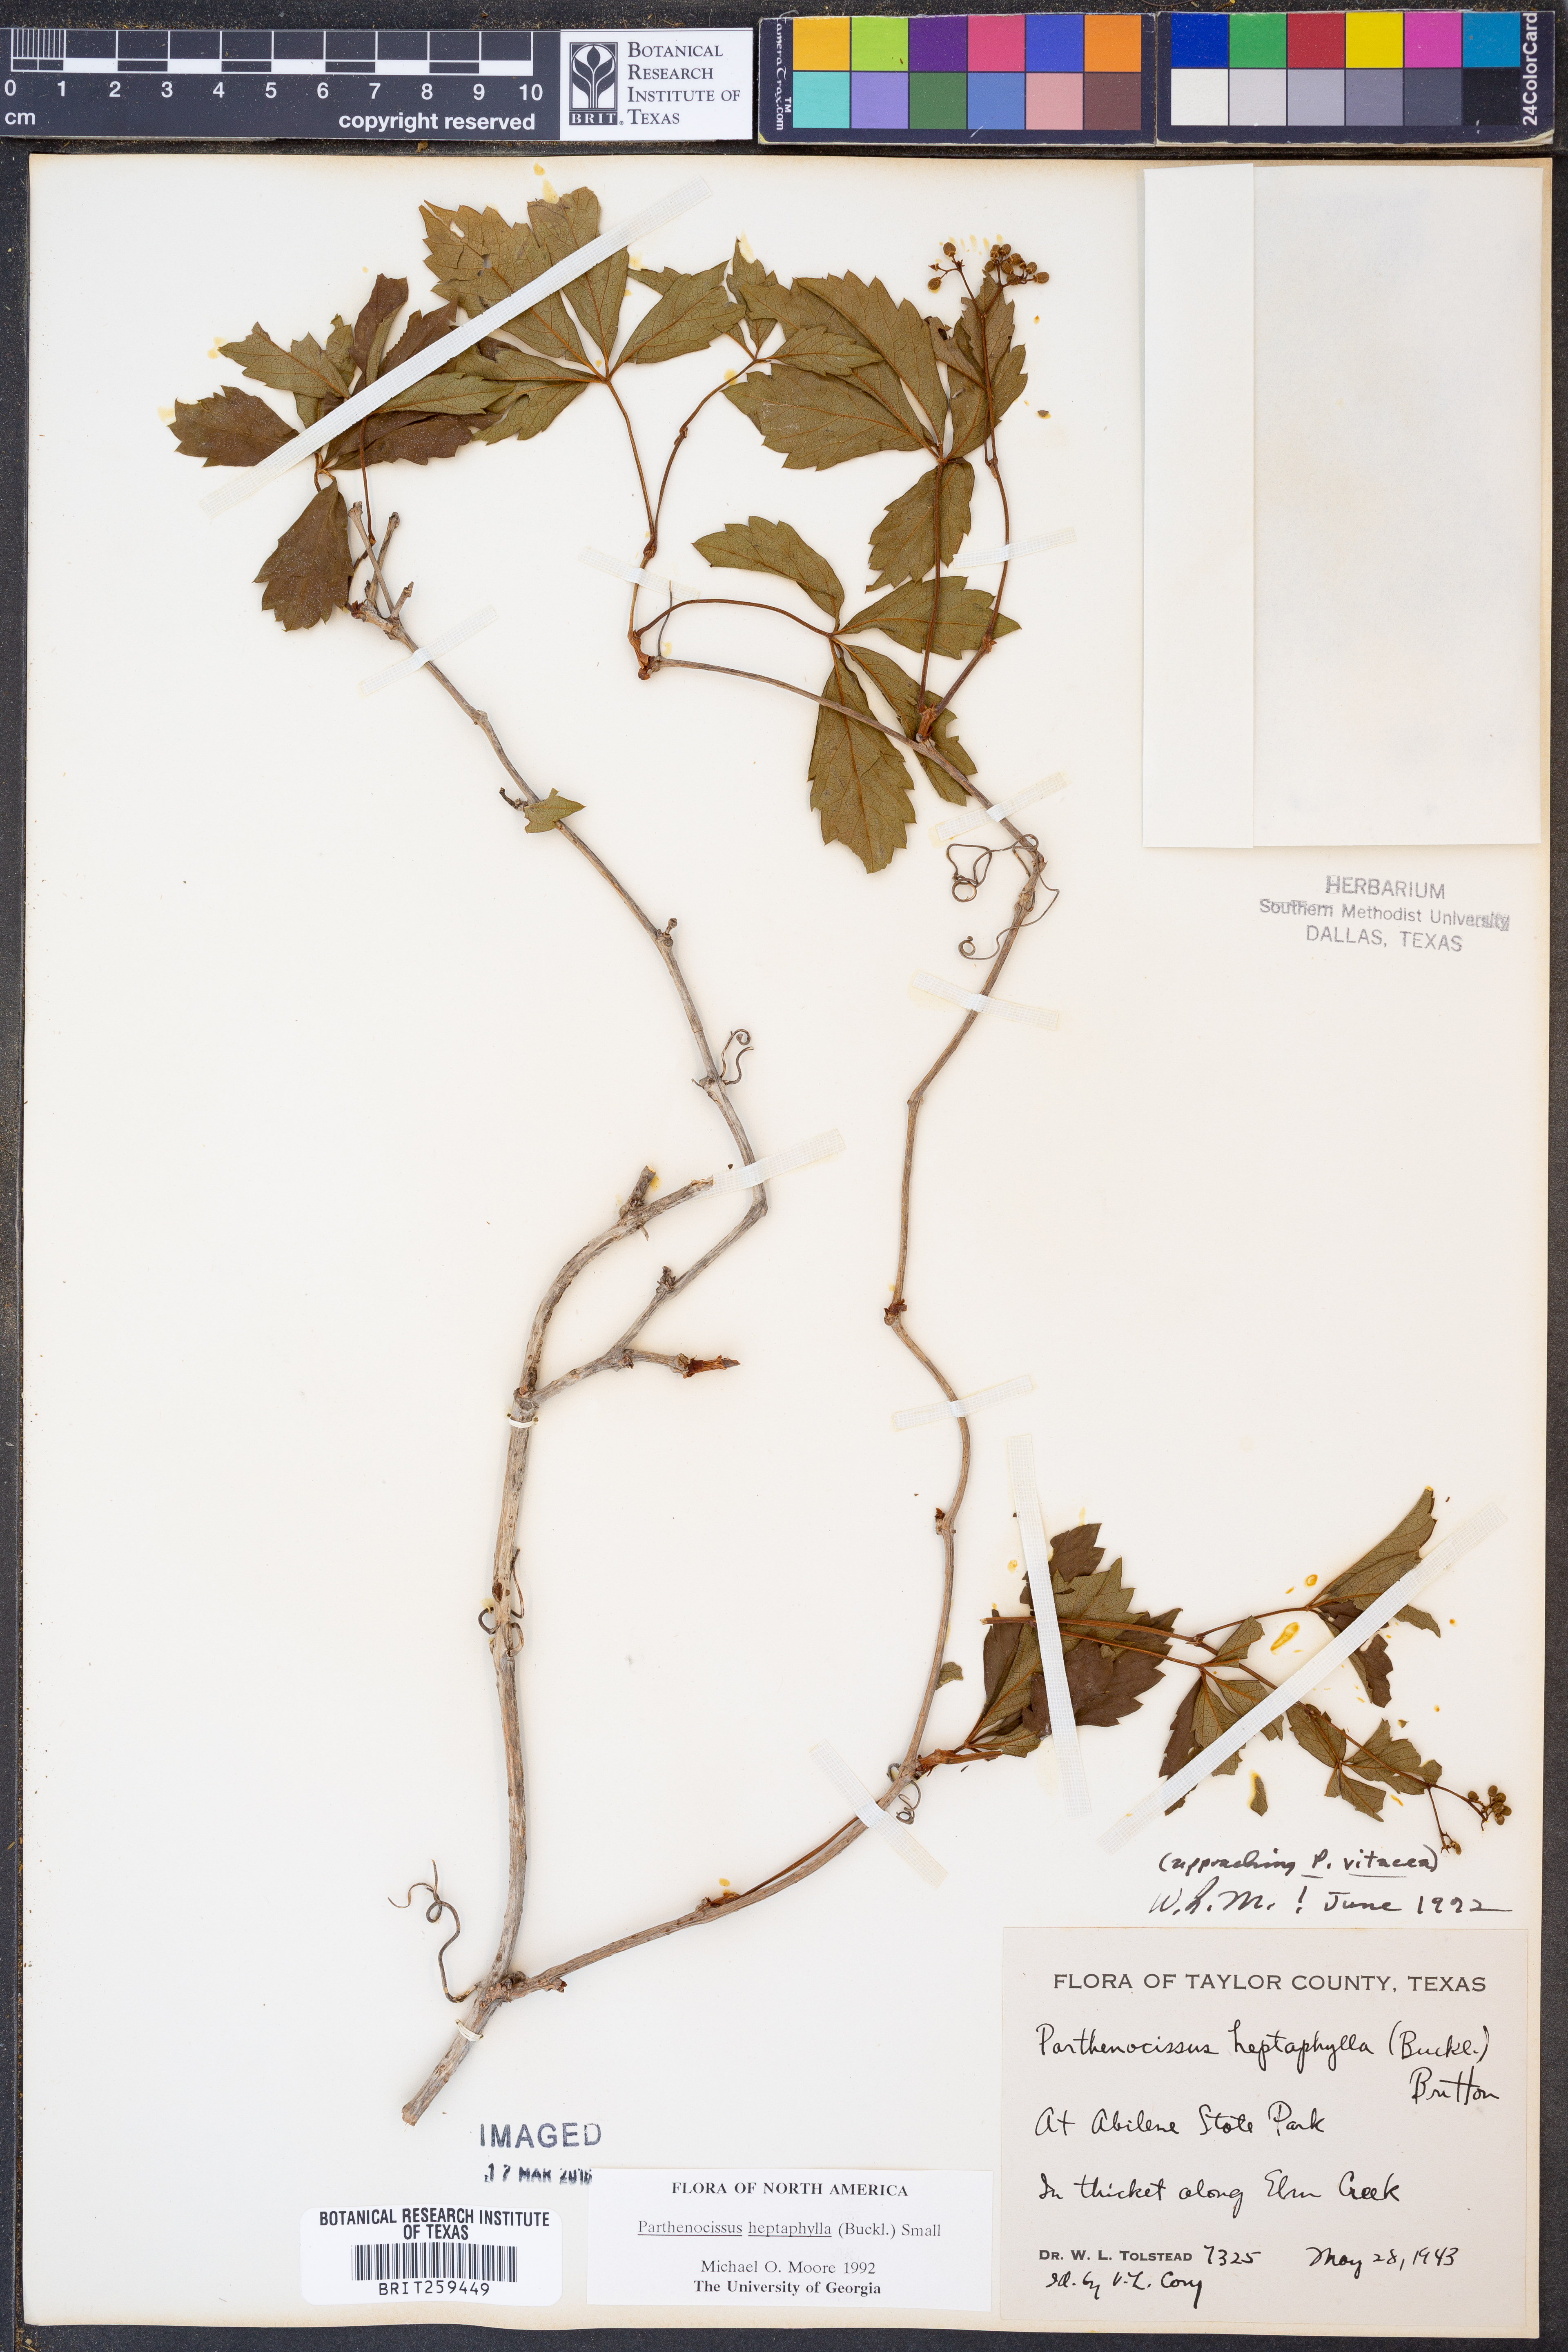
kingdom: Plantae
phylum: Tracheophyta
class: Magnoliopsida
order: Vitales
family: Vitaceae
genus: Parthenocissus
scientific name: Parthenocissus heptaphylla
